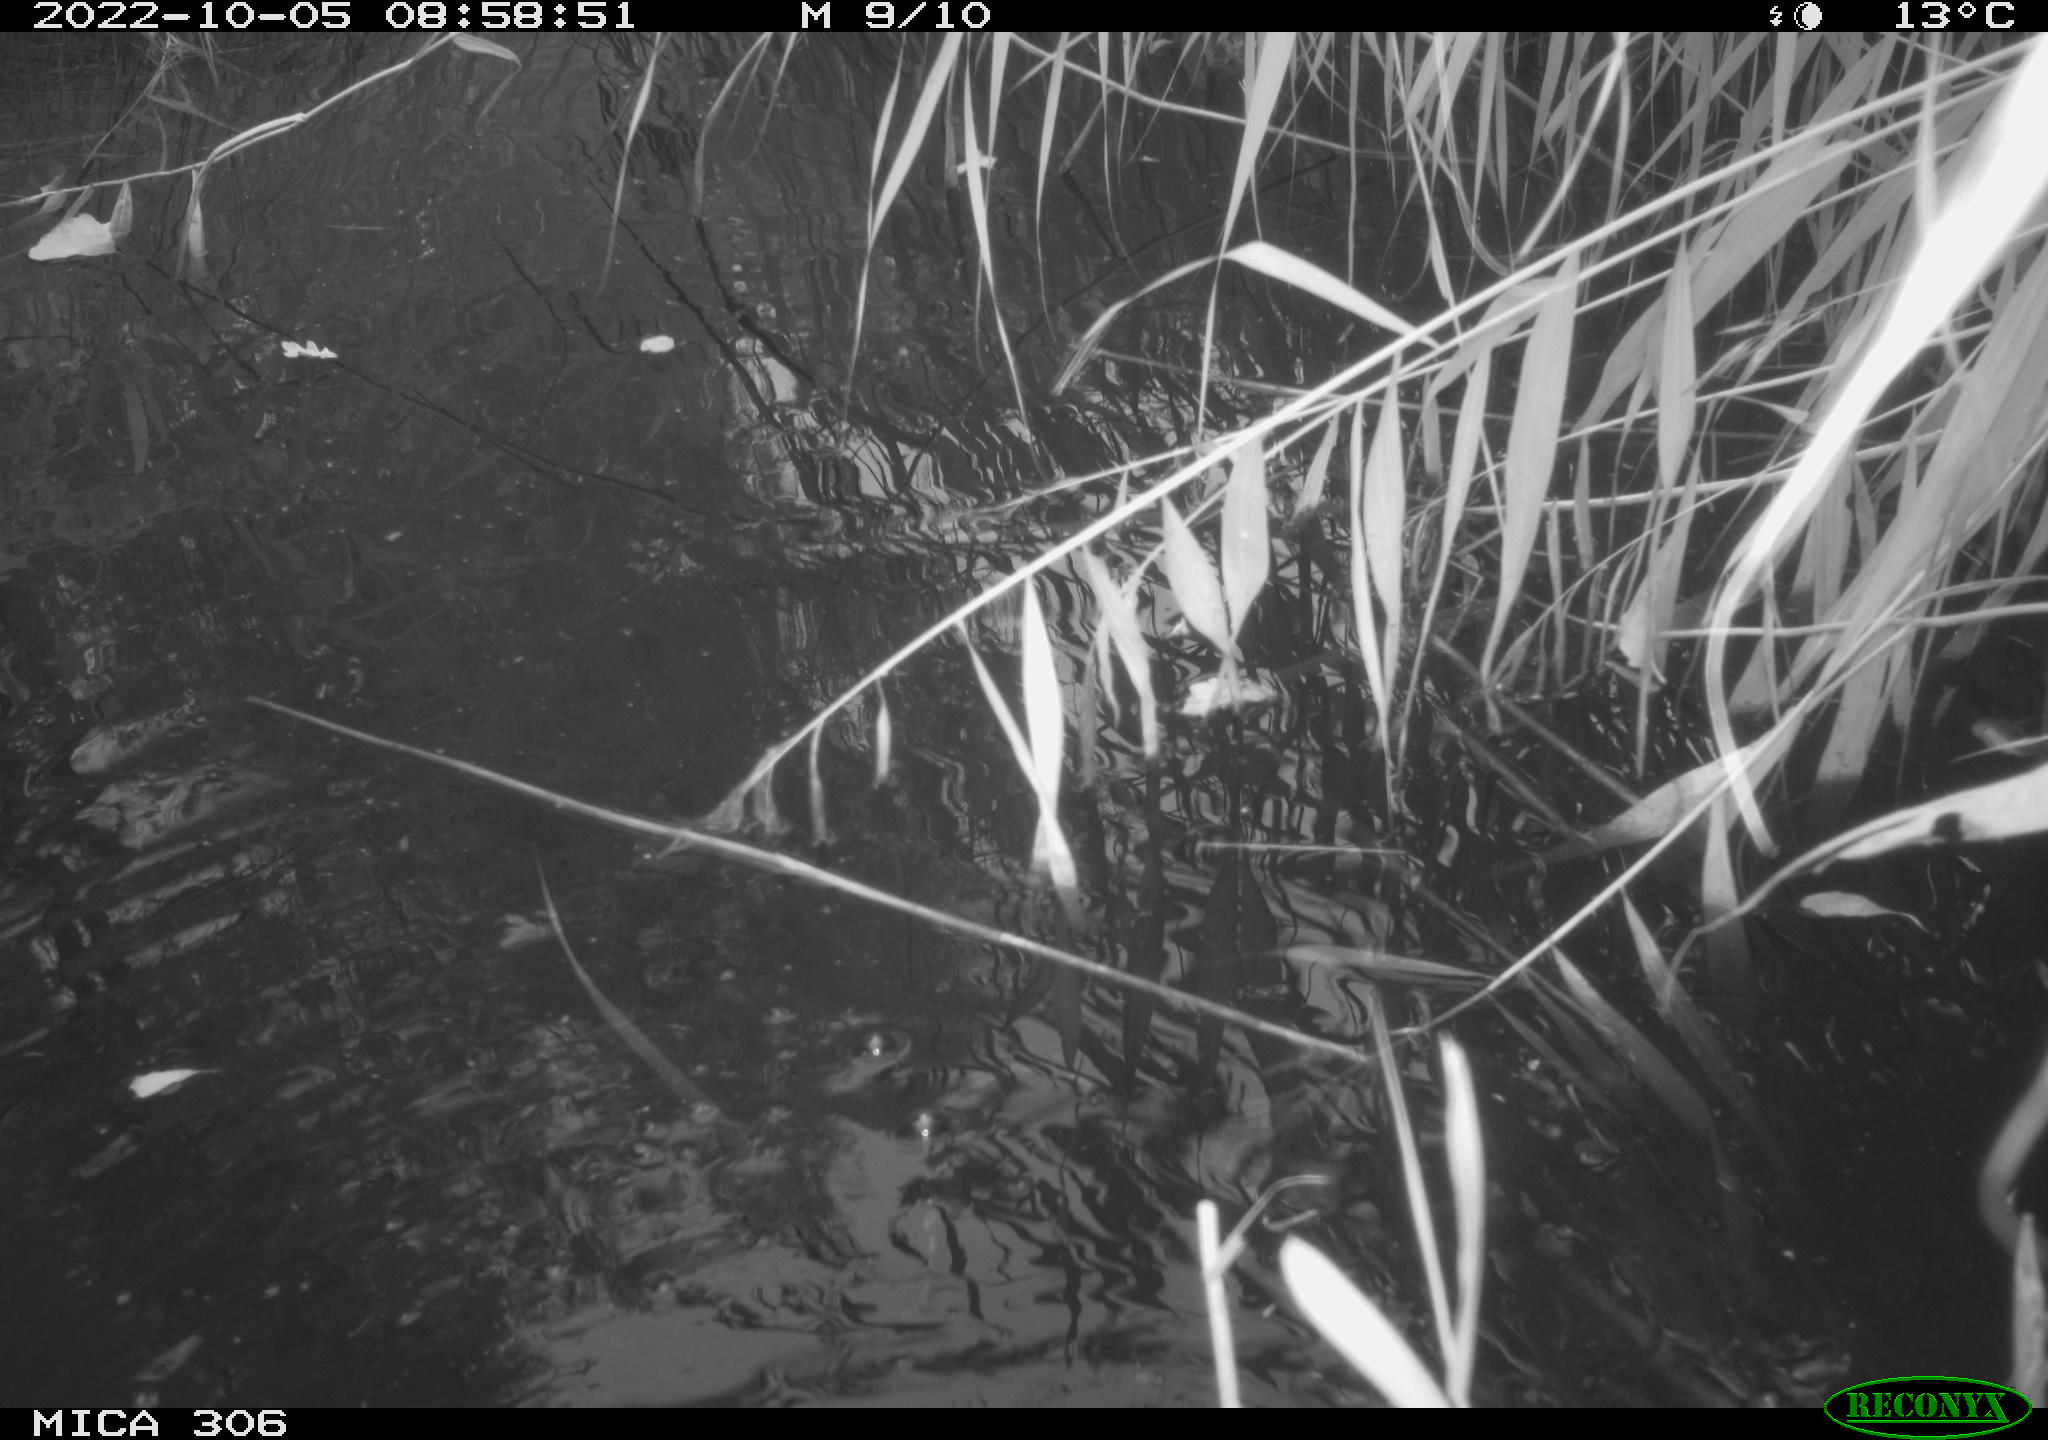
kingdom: Animalia
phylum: Chordata
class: Aves
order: Gruiformes
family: Rallidae
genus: Gallinula
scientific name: Gallinula chloropus
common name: Common moorhen
